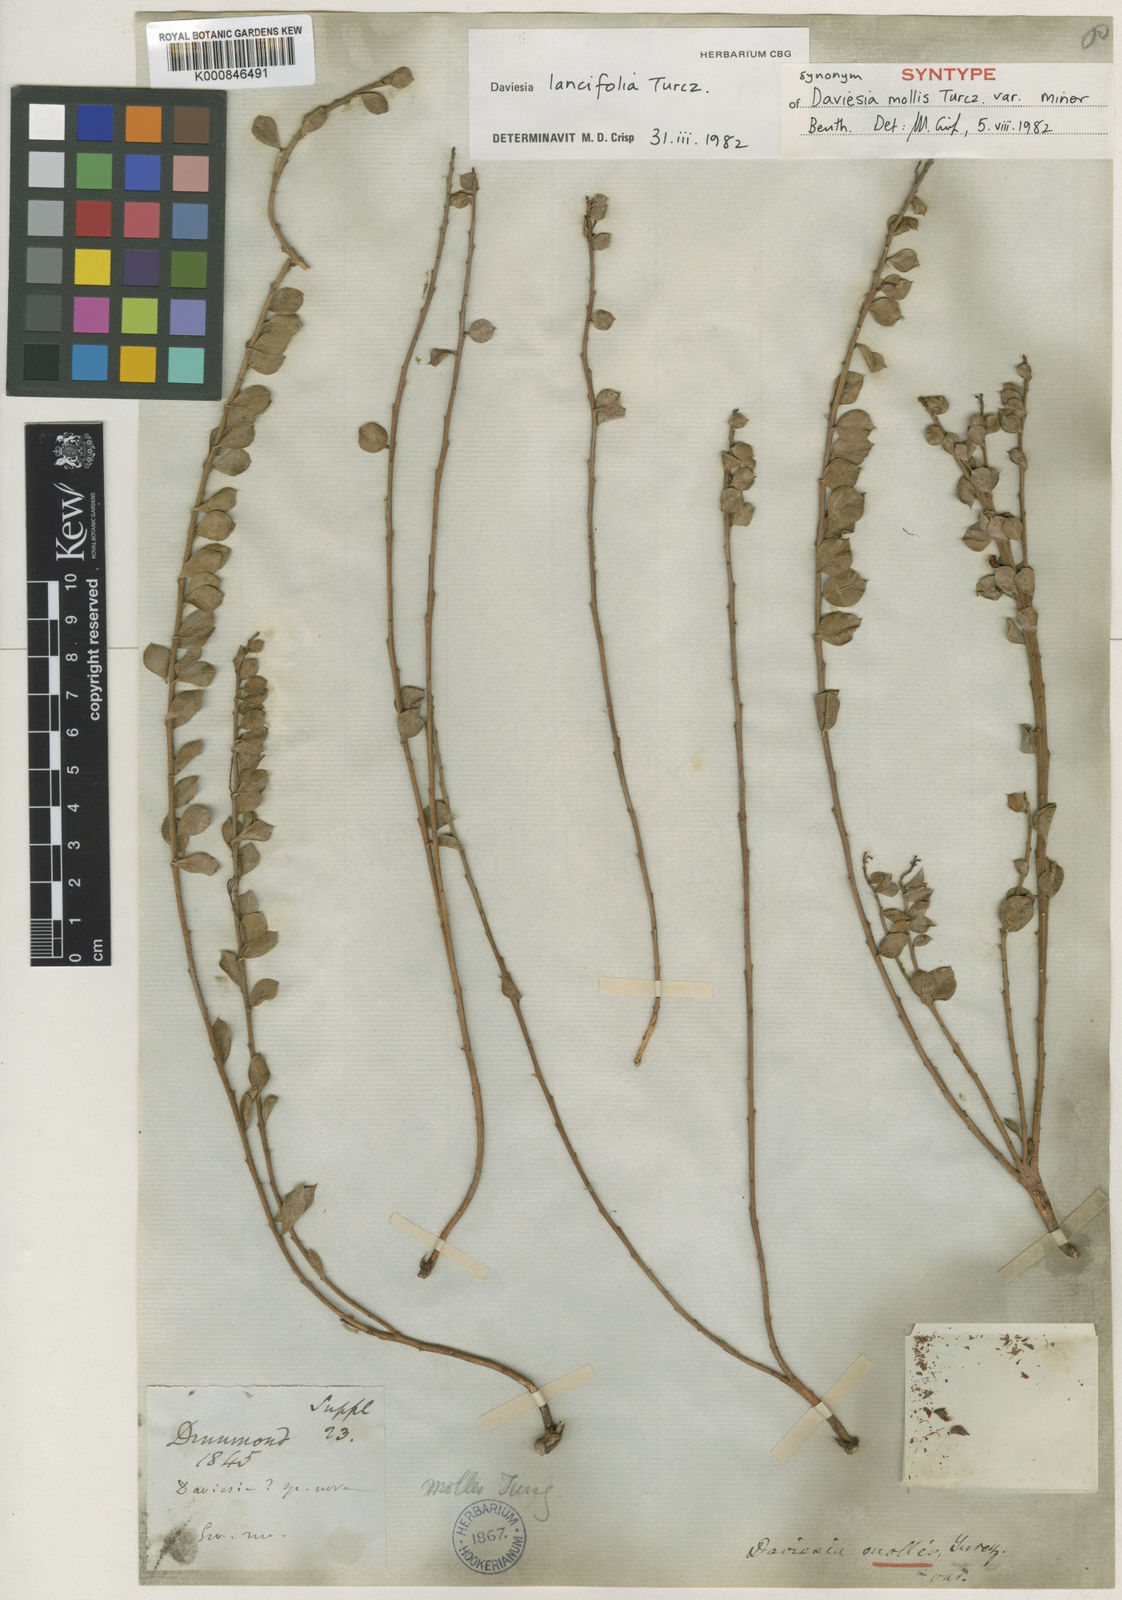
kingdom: Plantae
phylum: Tracheophyta
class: Magnoliopsida
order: Fabales
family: Fabaceae
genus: Daviesia
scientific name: Daviesia lancifolia
